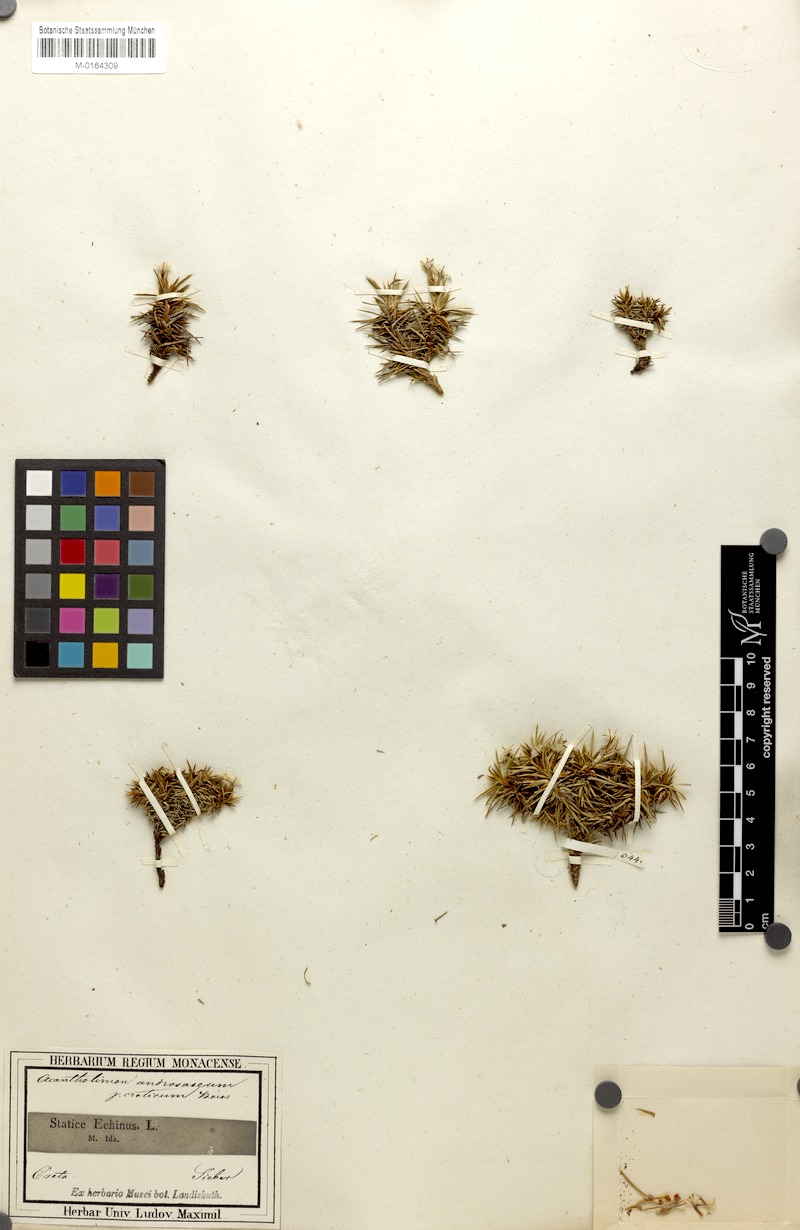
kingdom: Plantae
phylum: Tracheophyta
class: Magnoliopsida
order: Caryophyllales
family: Plumbaginaceae
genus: Acantholimon
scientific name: Acantholimon ulicinum
